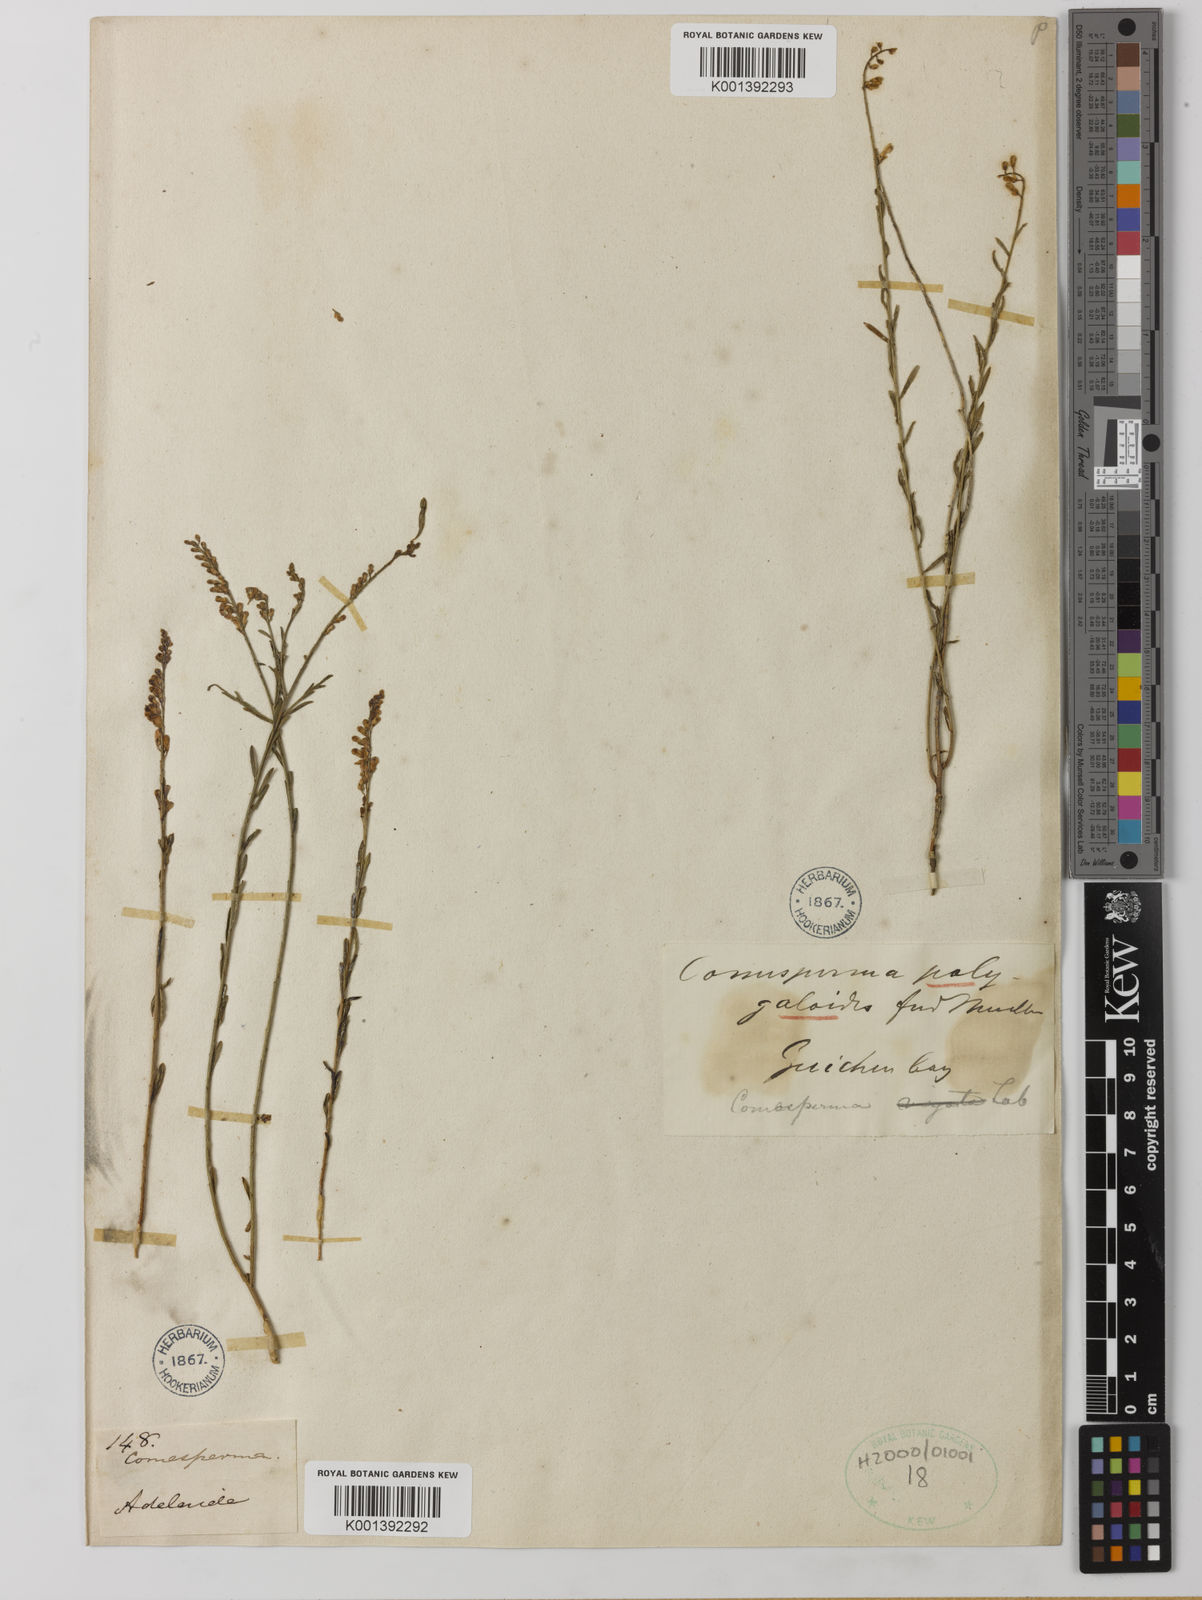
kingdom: Plantae
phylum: Tracheophyta
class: Magnoliopsida
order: Fabales
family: Polygalaceae
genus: Comesperma
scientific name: Comesperma
